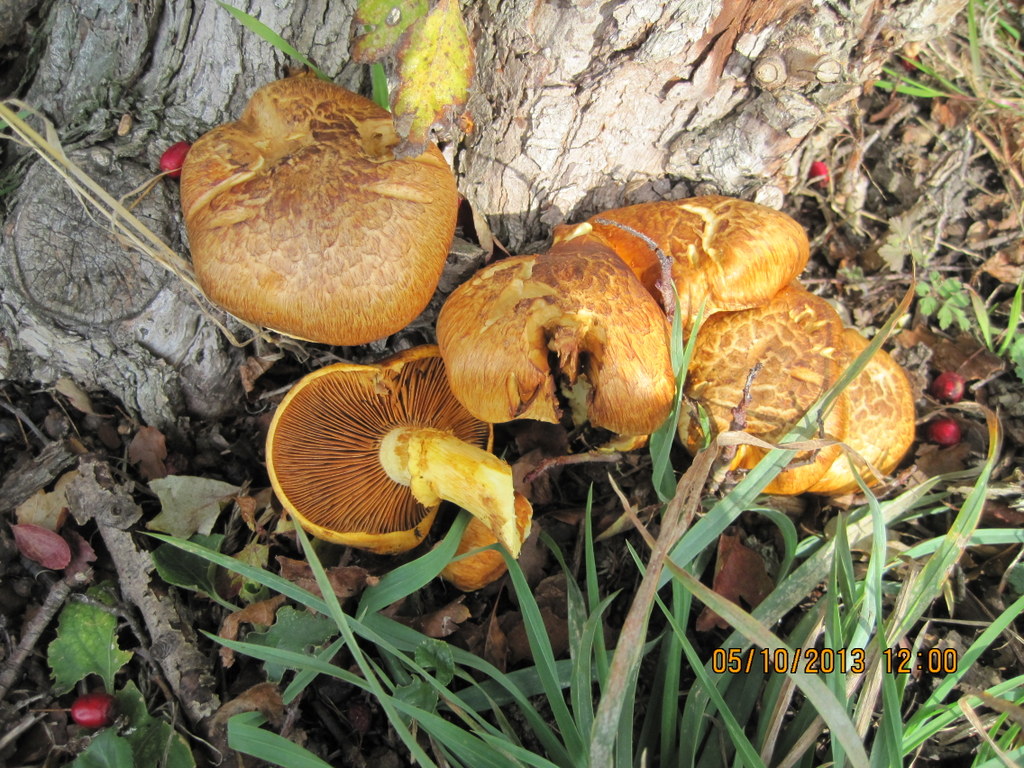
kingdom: Fungi
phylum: Basidiomycota
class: Agaricomycetes
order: Agaricales
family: Hymenogastraceae
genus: Gymnopilus
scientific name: Gymnopilus spectabilis
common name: fibret flammehat
